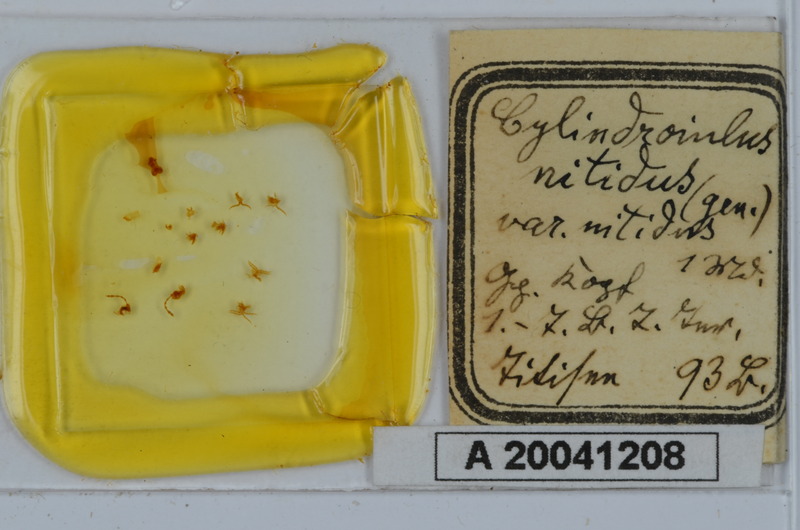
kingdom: Animalia
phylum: Arthropoda
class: Diplopoda
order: Julida
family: Julidae
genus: Allajulus
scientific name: Allajulus nitidus
